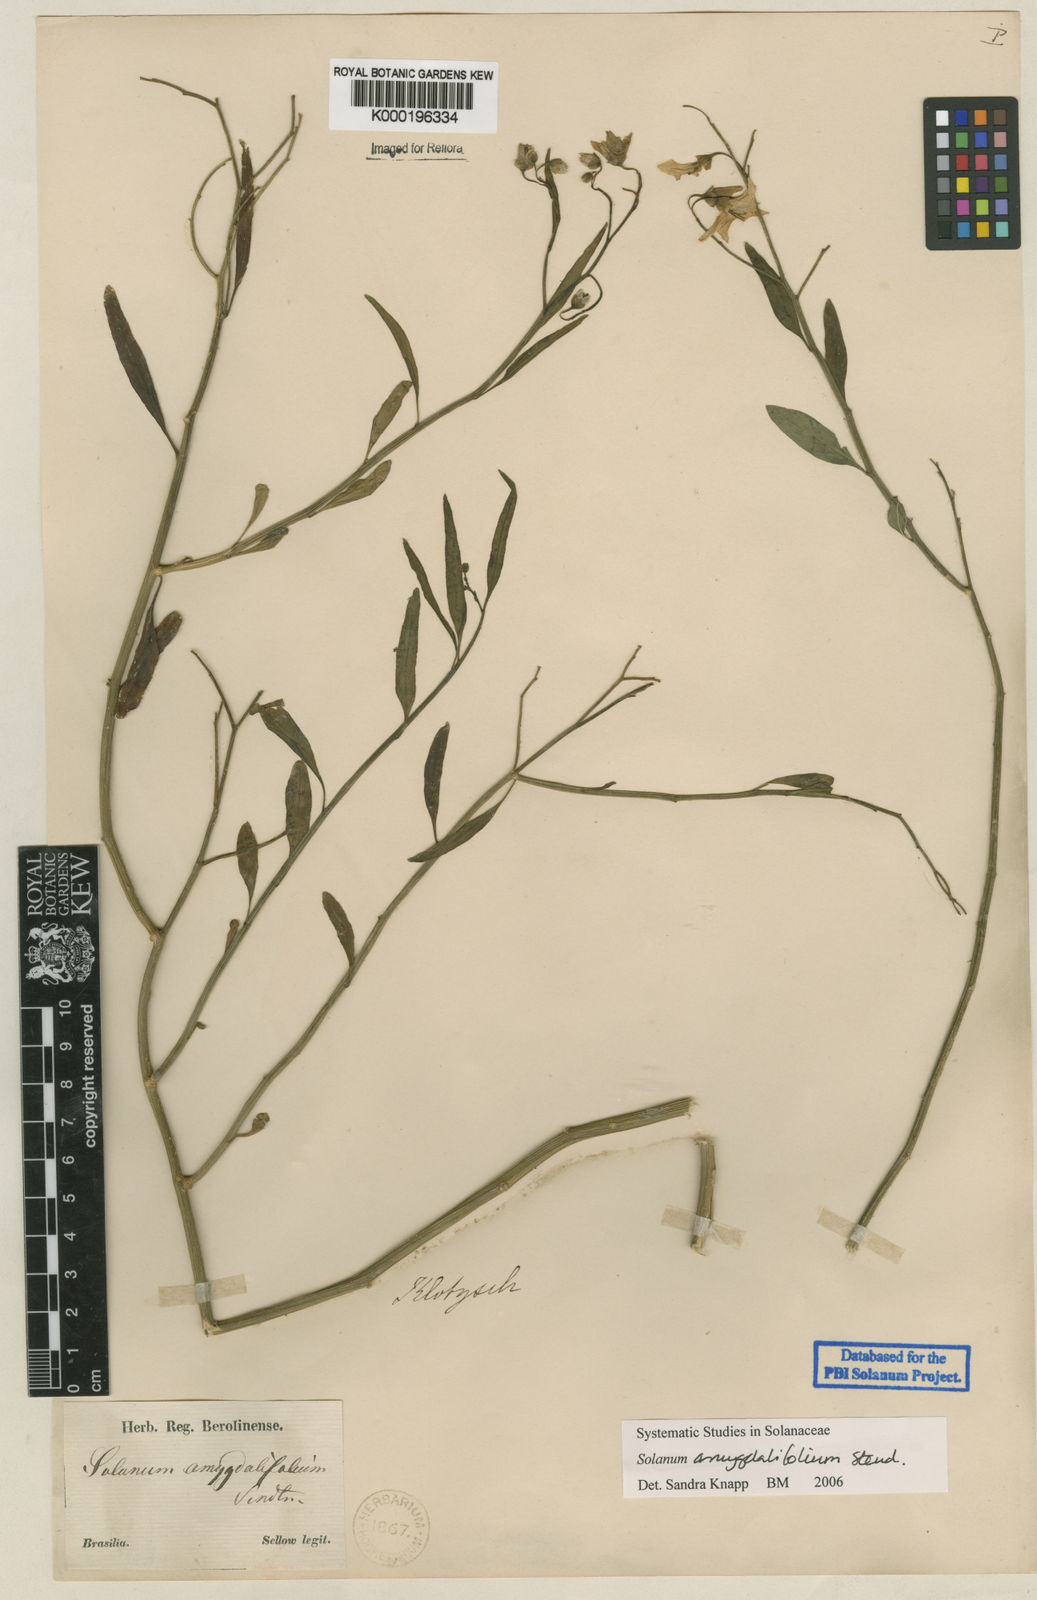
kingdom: Plantae
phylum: Tracheophyta
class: Magnoliopsida
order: Solanales
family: Solanaceae
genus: Solanum
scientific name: Solanum amygdalifolium
